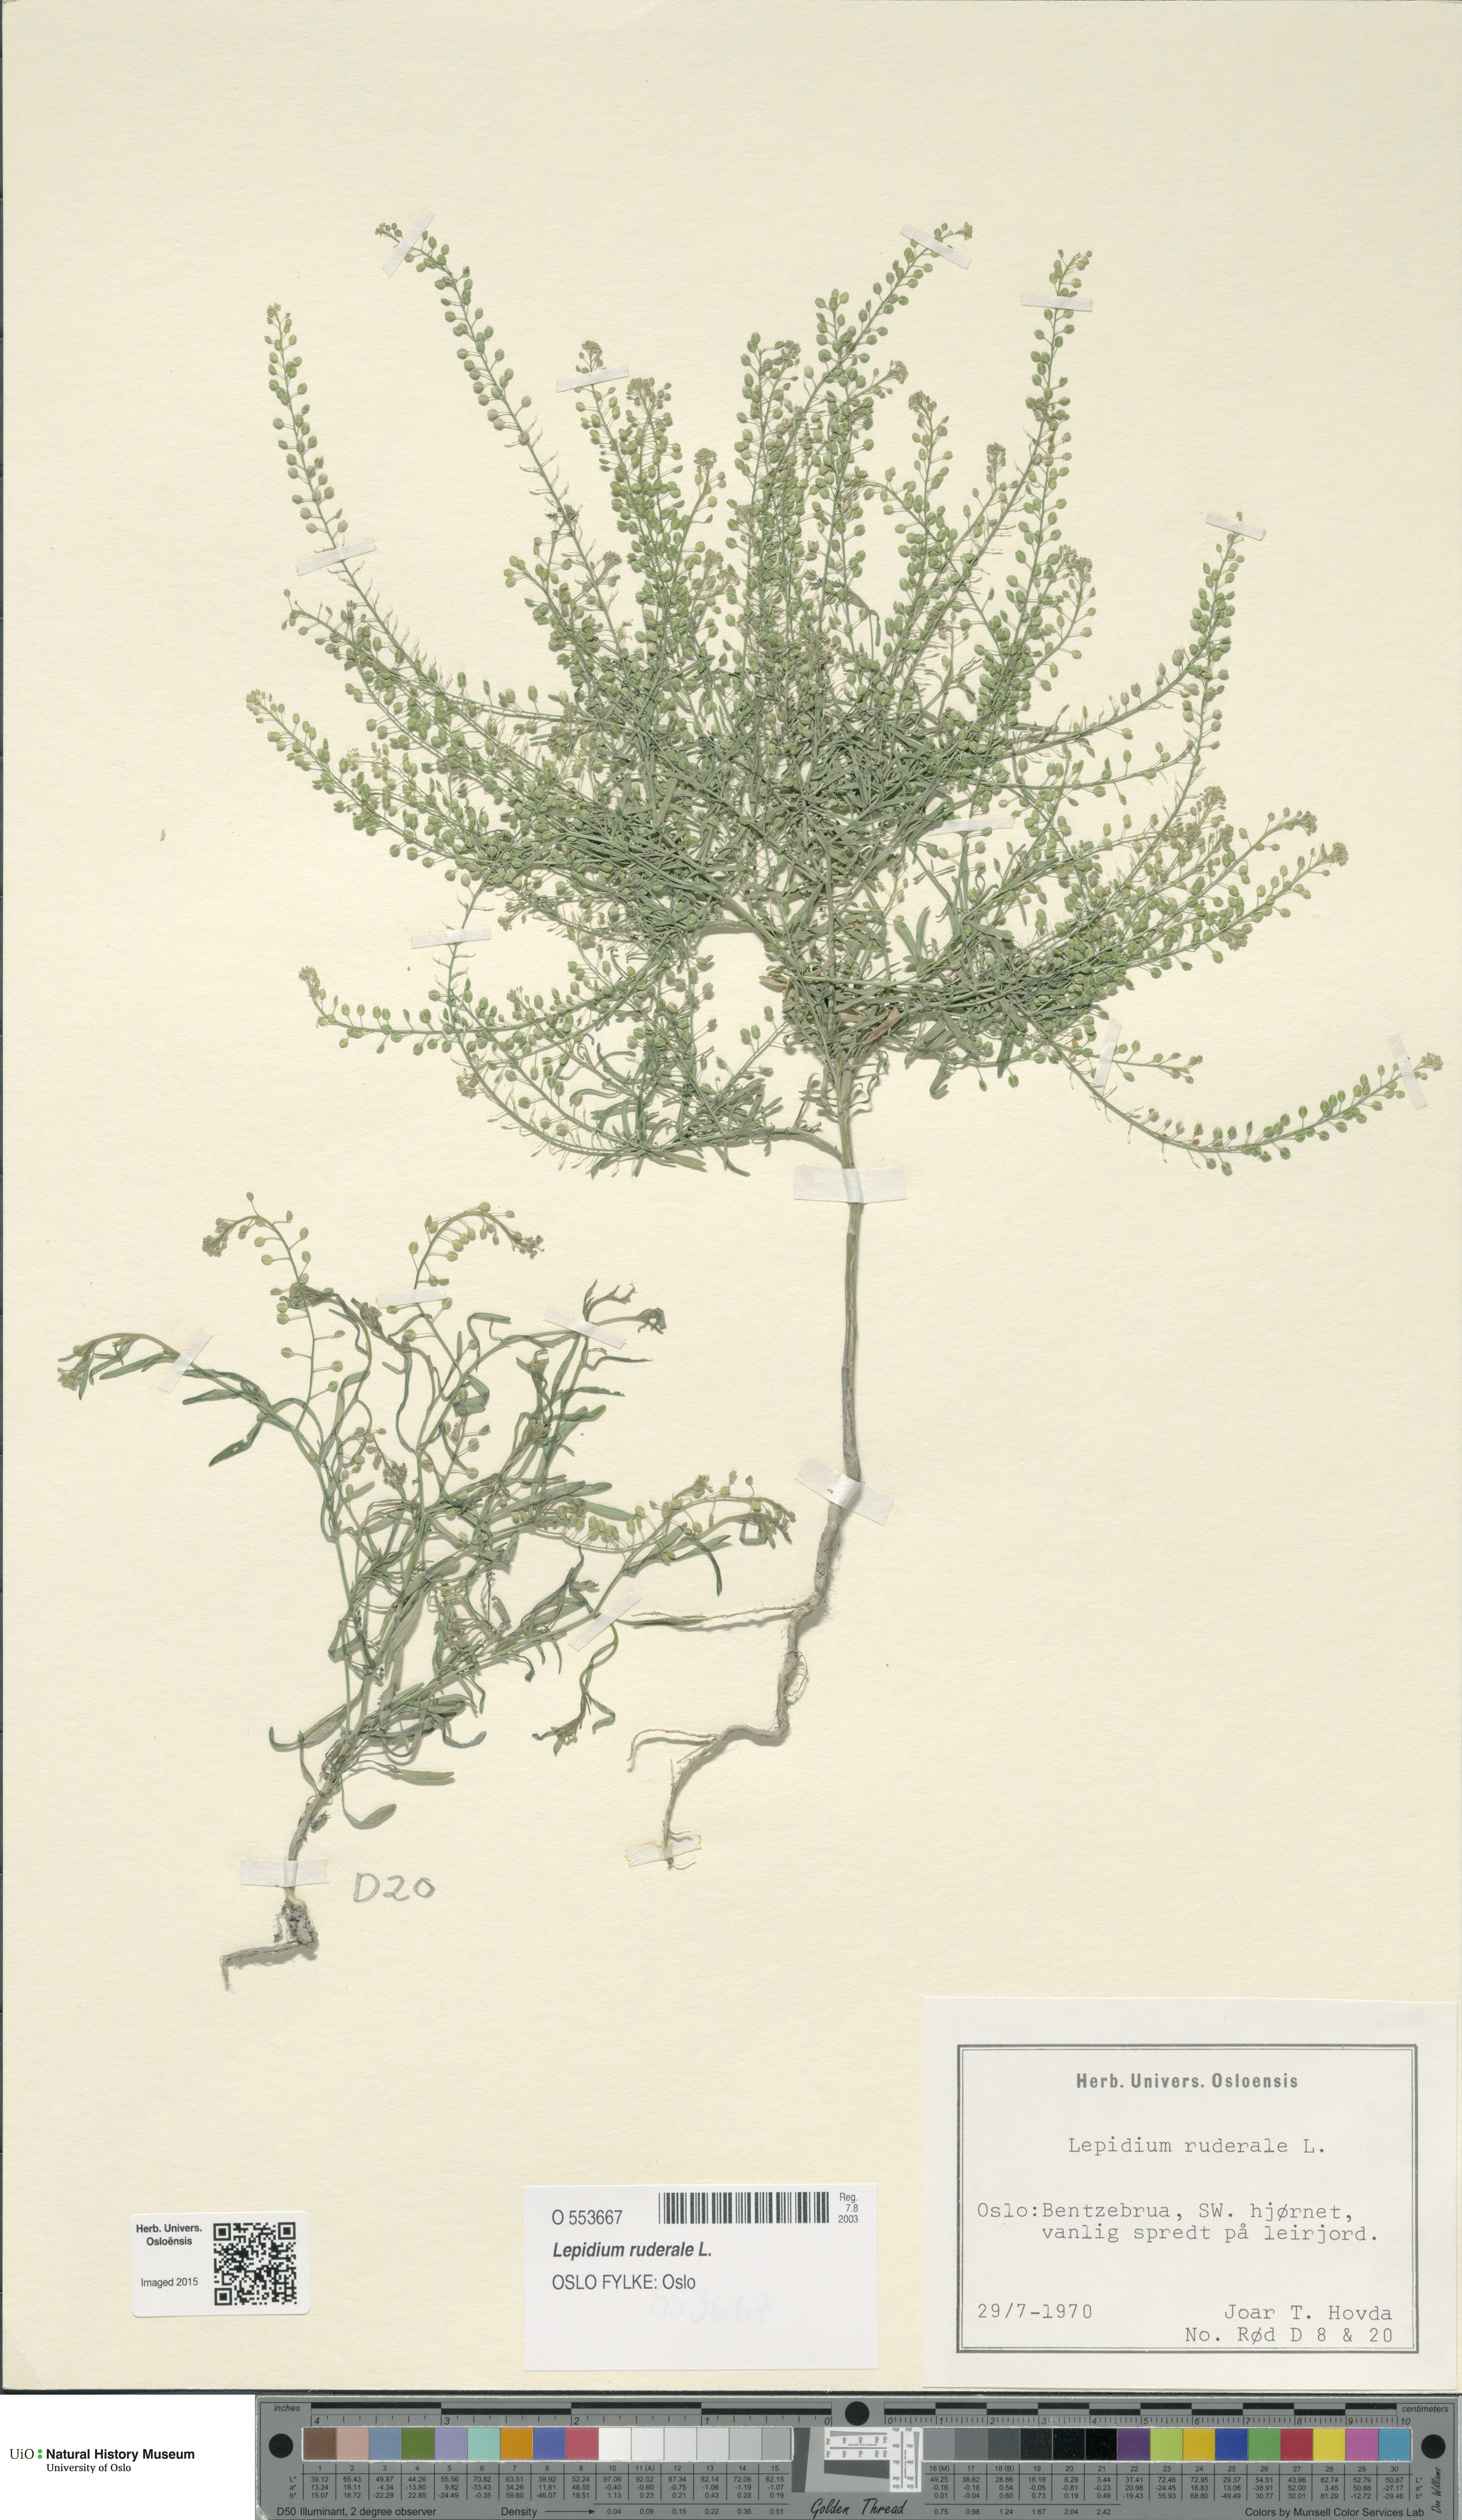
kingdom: Plantae
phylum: Tracheophyta
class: Magnoliopsida
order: Brassicales
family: Brassicaceae
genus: Lepidium
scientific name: Lepidium ruderale
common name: Narrow-leaved pepperwort
